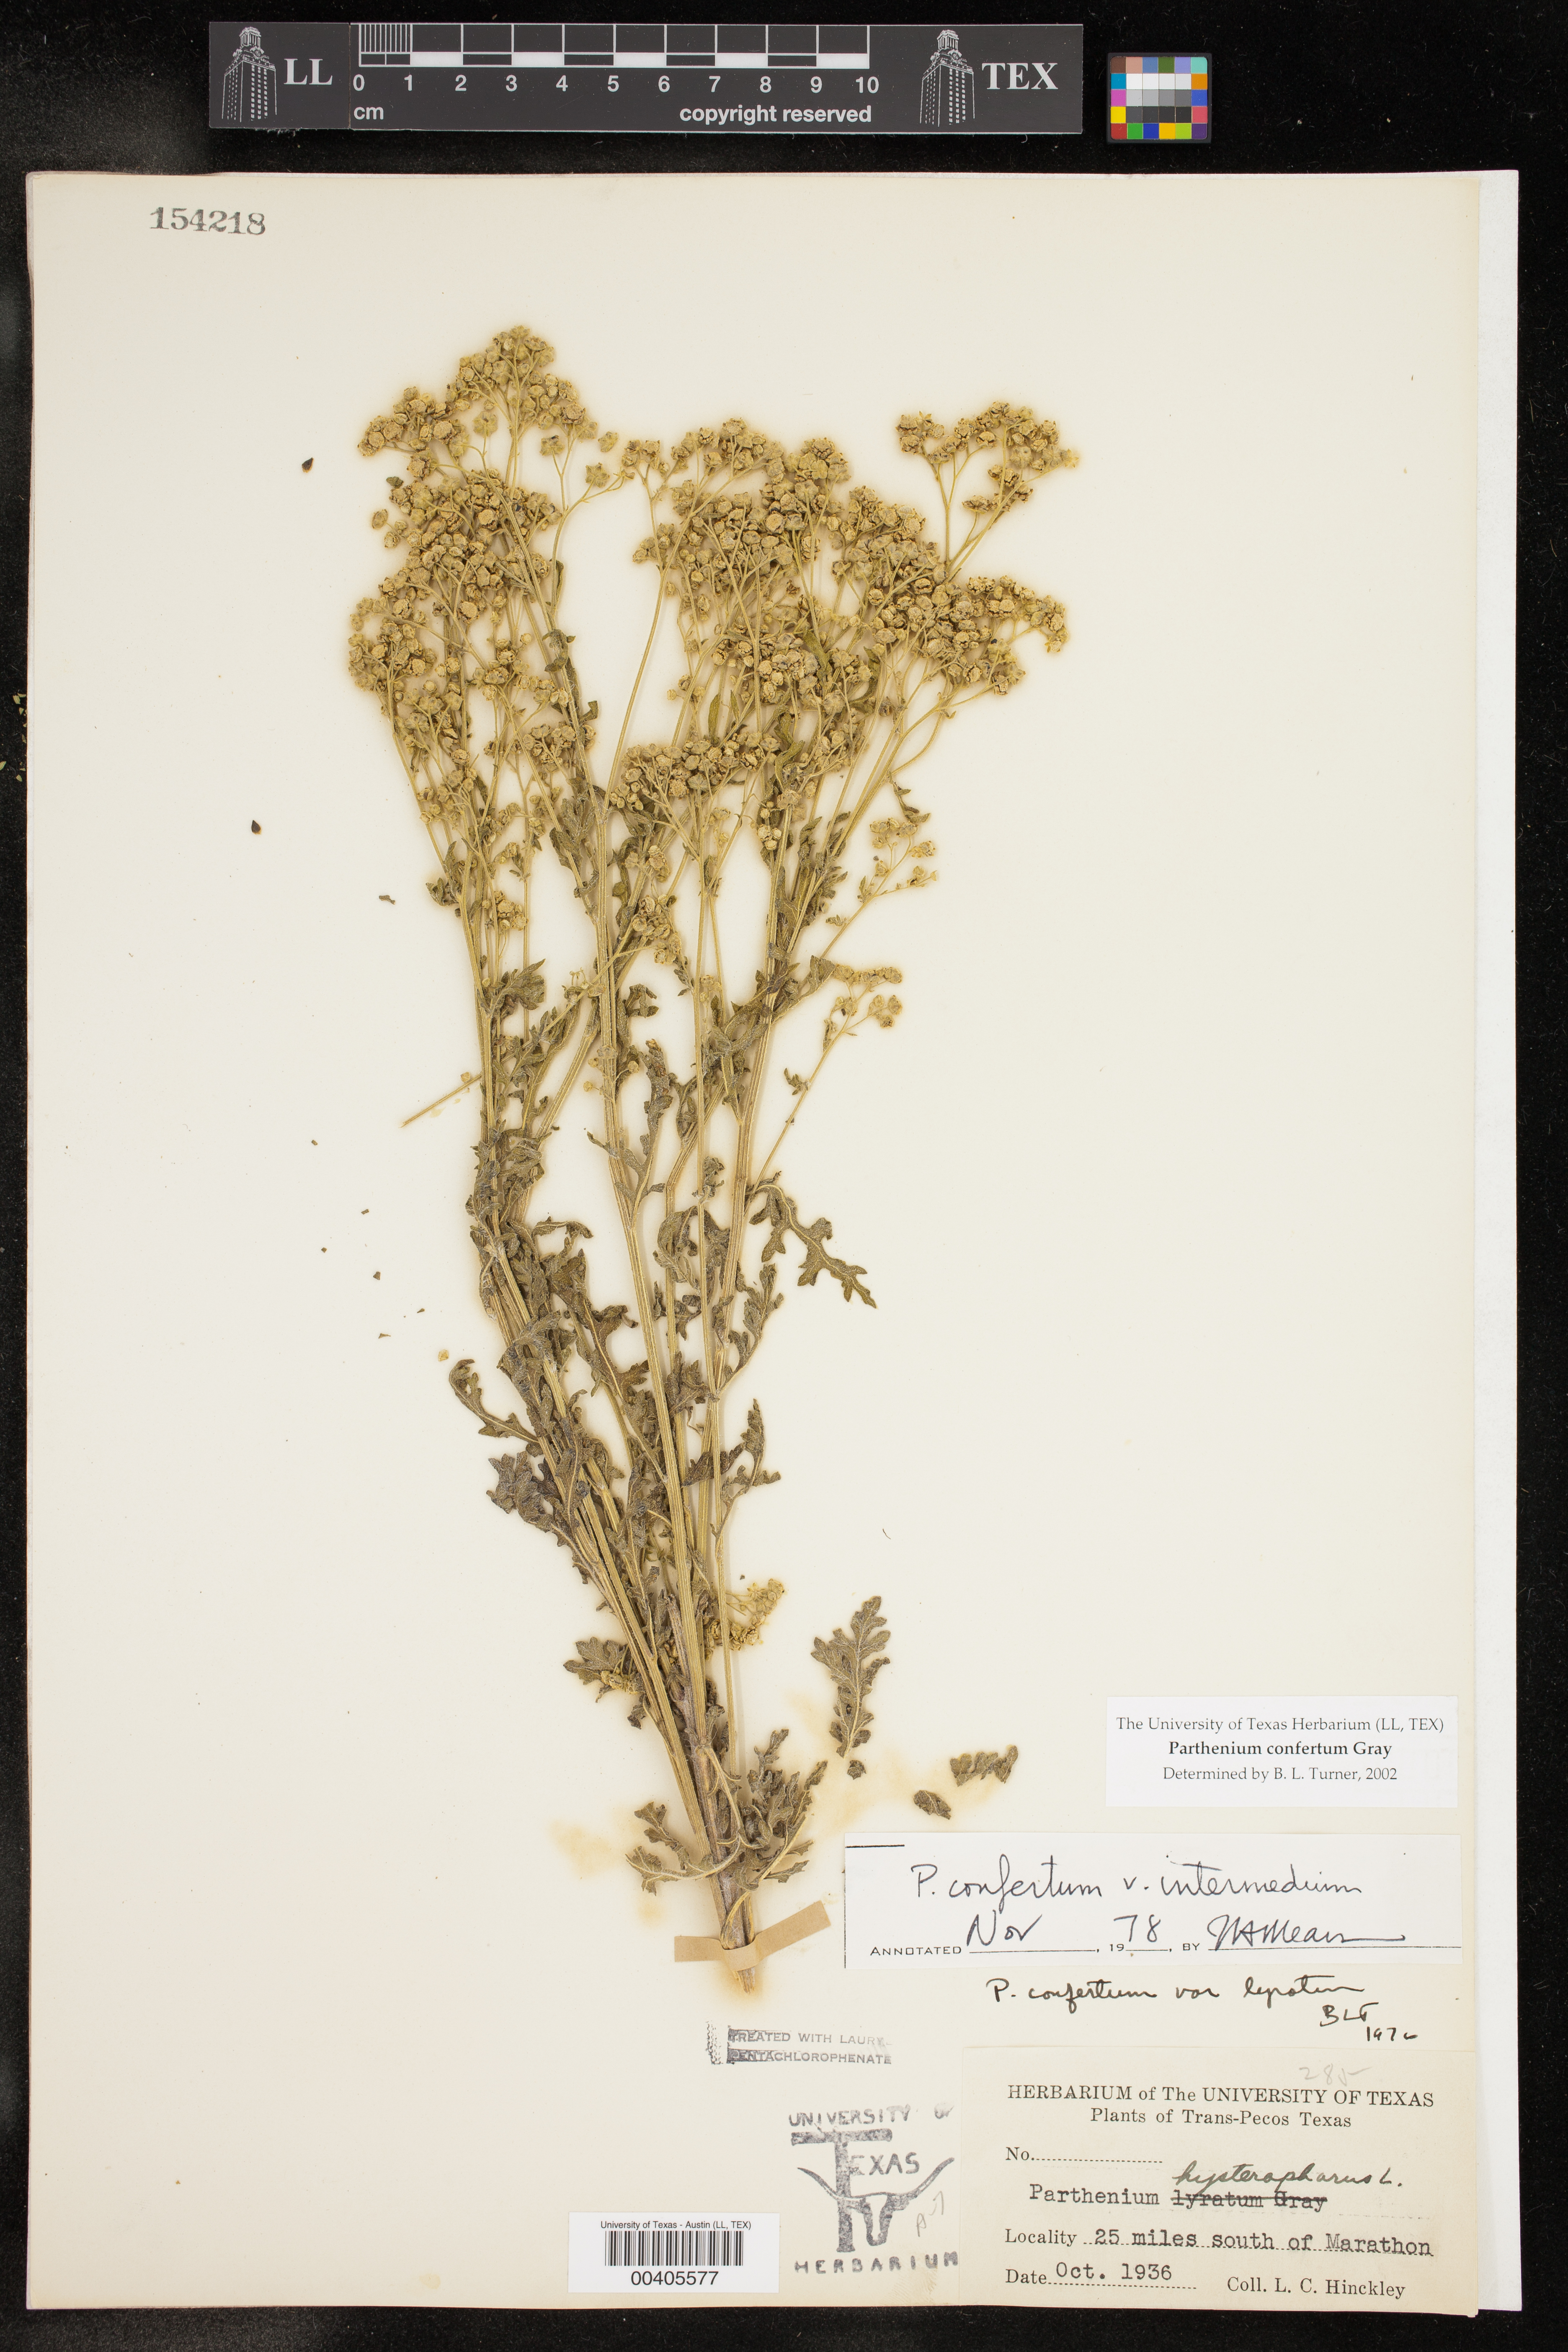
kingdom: Plantae
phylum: Tracheophyta
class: Magnoliopsida
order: Asterales
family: Asteraceae
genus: Parthenium
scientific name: Parthenium confertum
